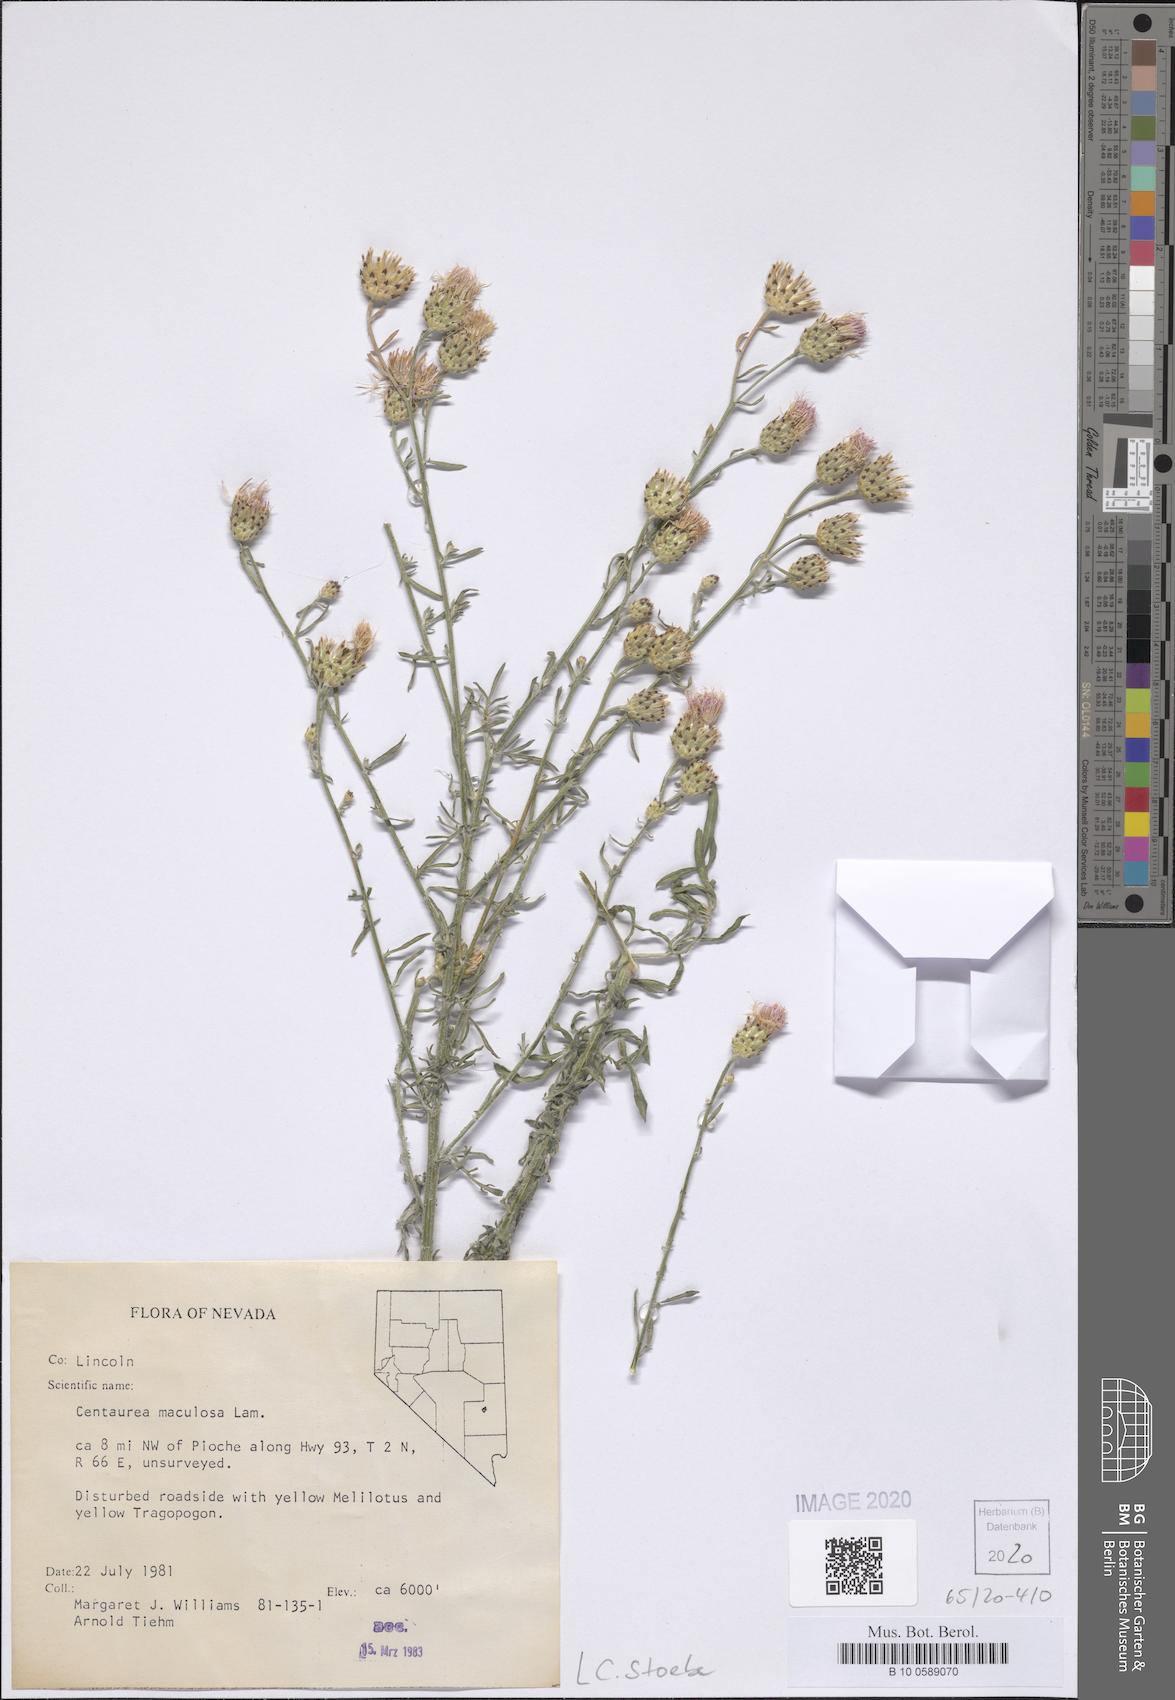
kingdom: Plantae
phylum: Tracheophyta
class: Magnoliopsida
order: Asterales
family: Asteraceae
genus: Centaurea
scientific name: Centaurea stoebe
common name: Spotted knapweed
